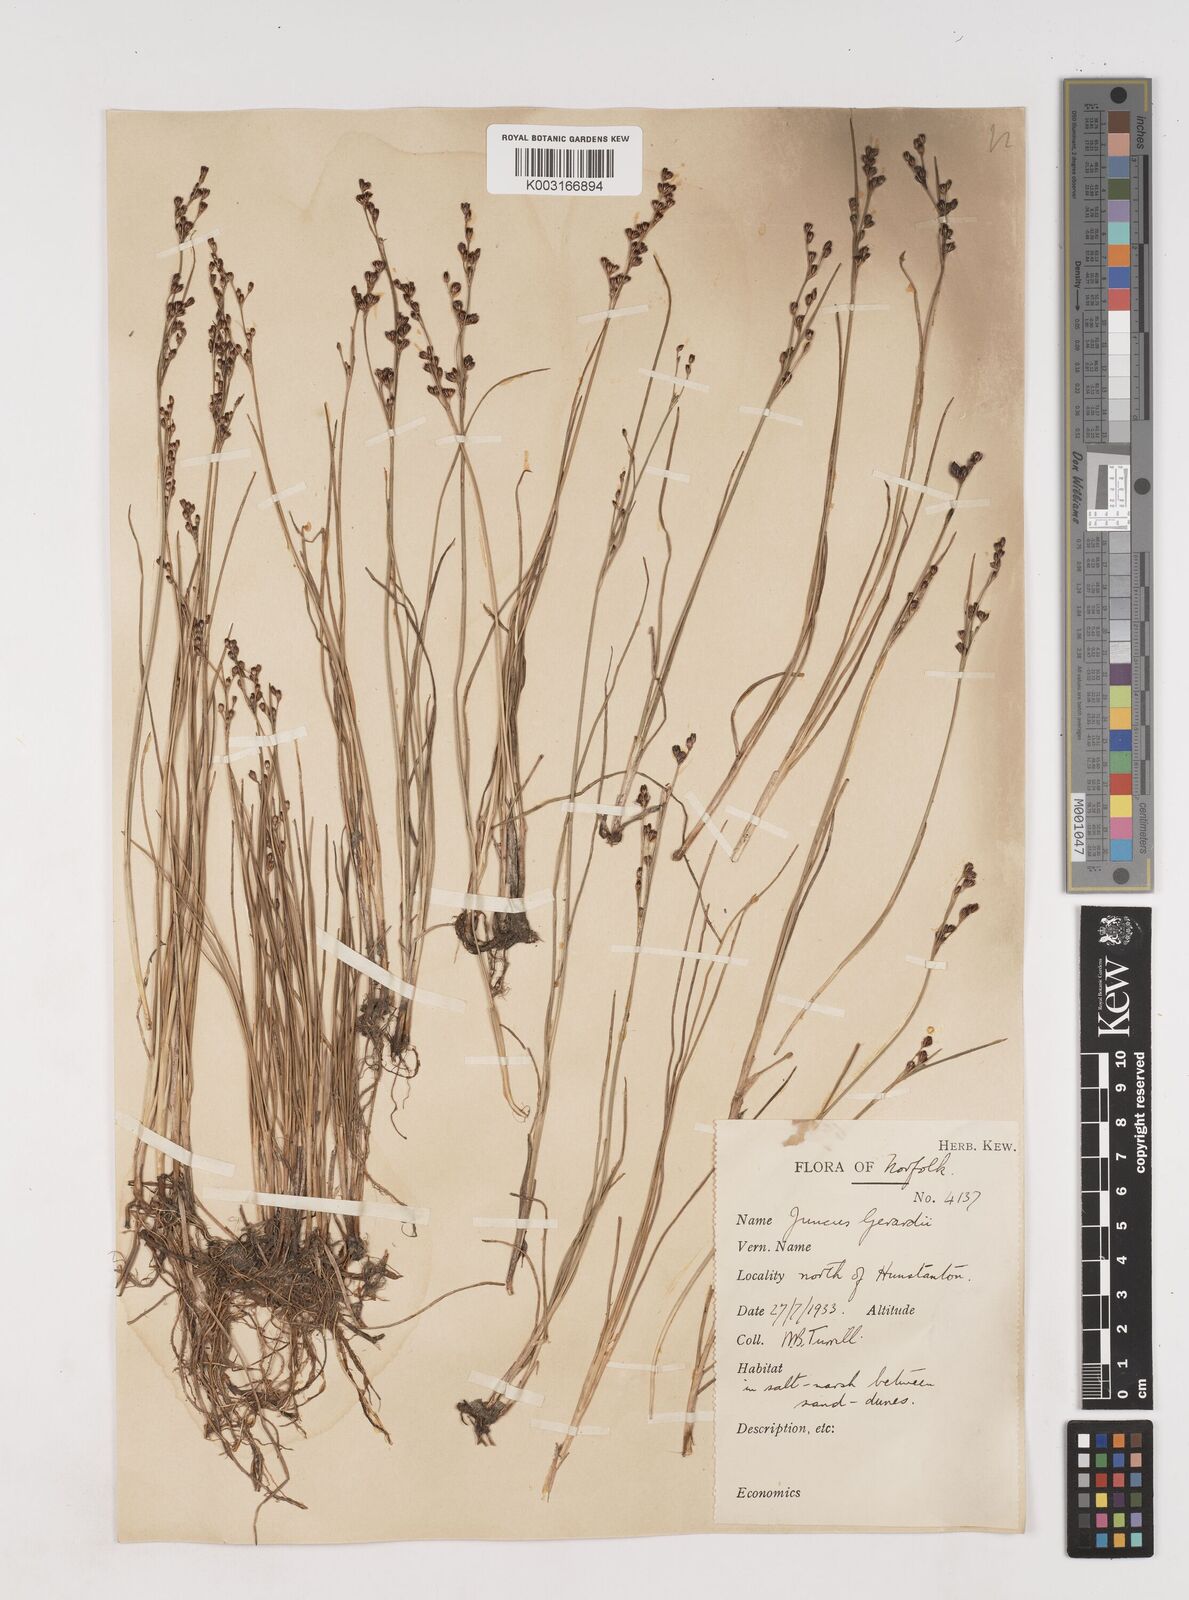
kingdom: Plantae
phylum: Tracheophyta
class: Liliopsida
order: Poales
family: Juncaceae
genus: Juncus
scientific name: Juncus gerardi
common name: Saltmarsh rush
